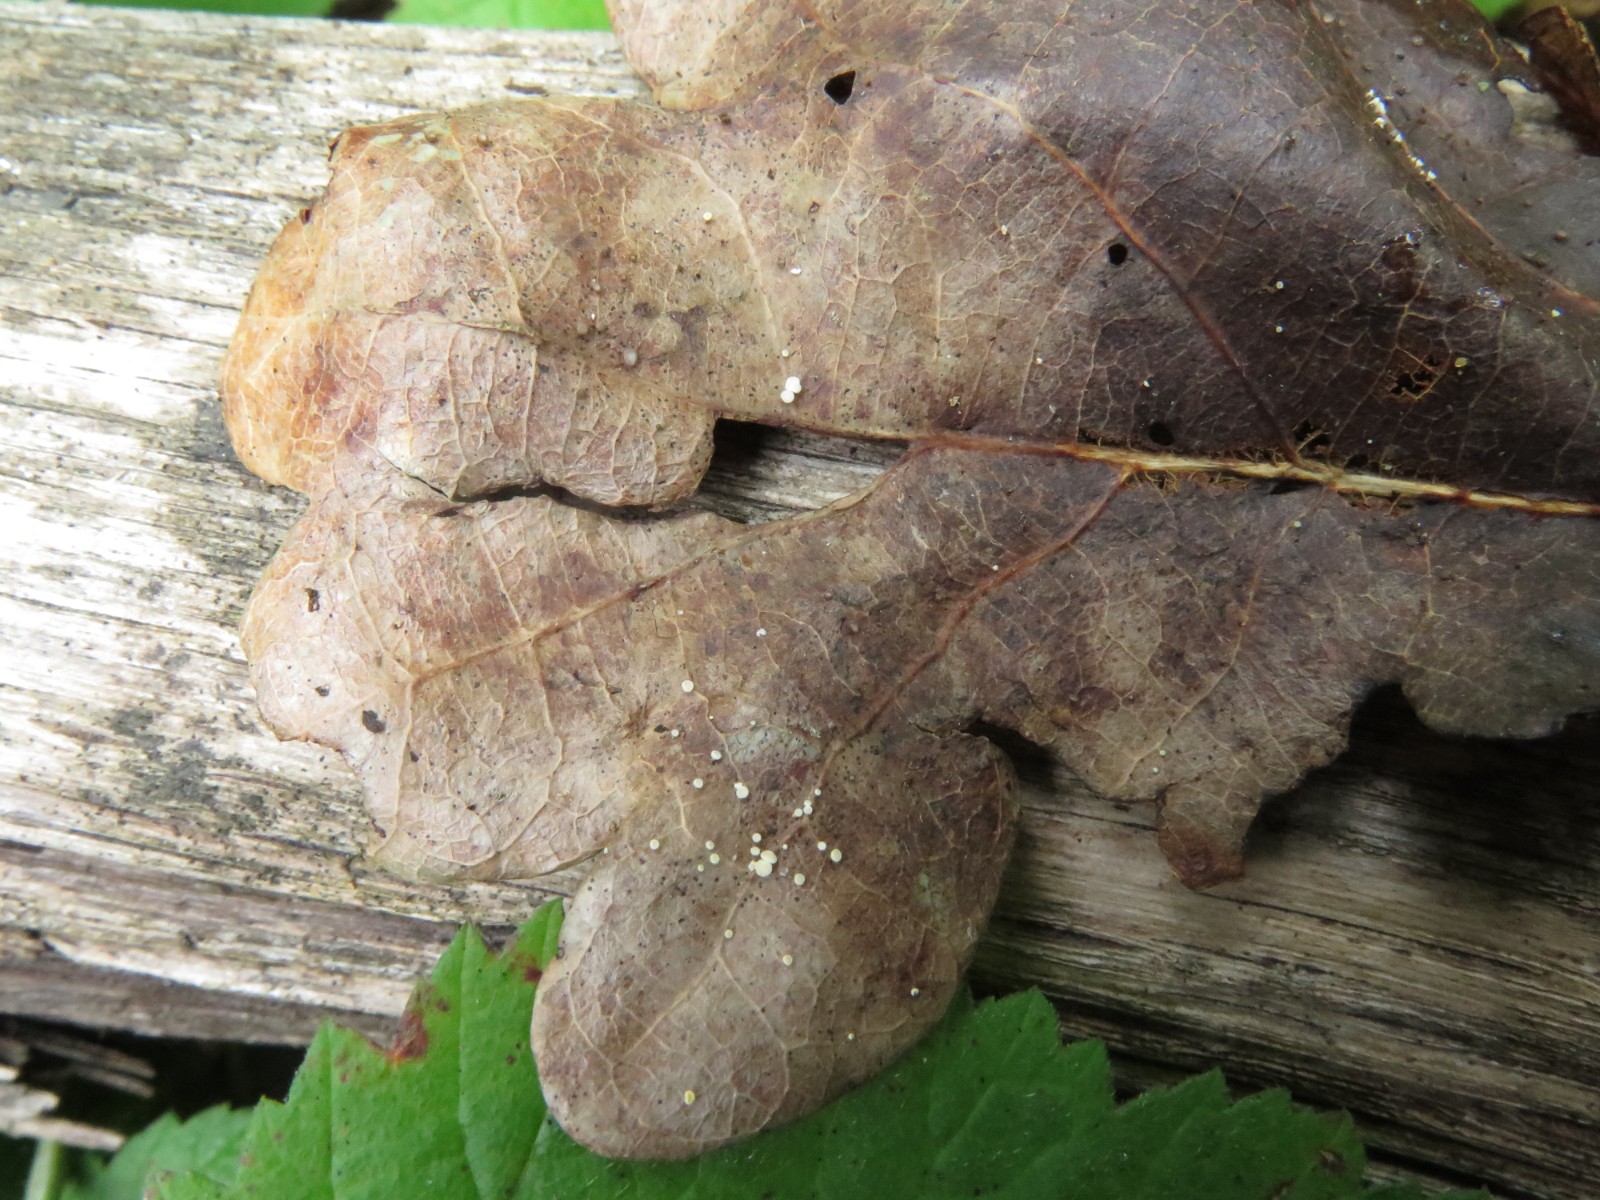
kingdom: Fungi
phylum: Ascomycota
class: Leotiomycetes
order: Helotiales
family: Lachnaceae
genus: Lachnum
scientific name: Lachnum virgineum
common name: jomfru-frynseskive
